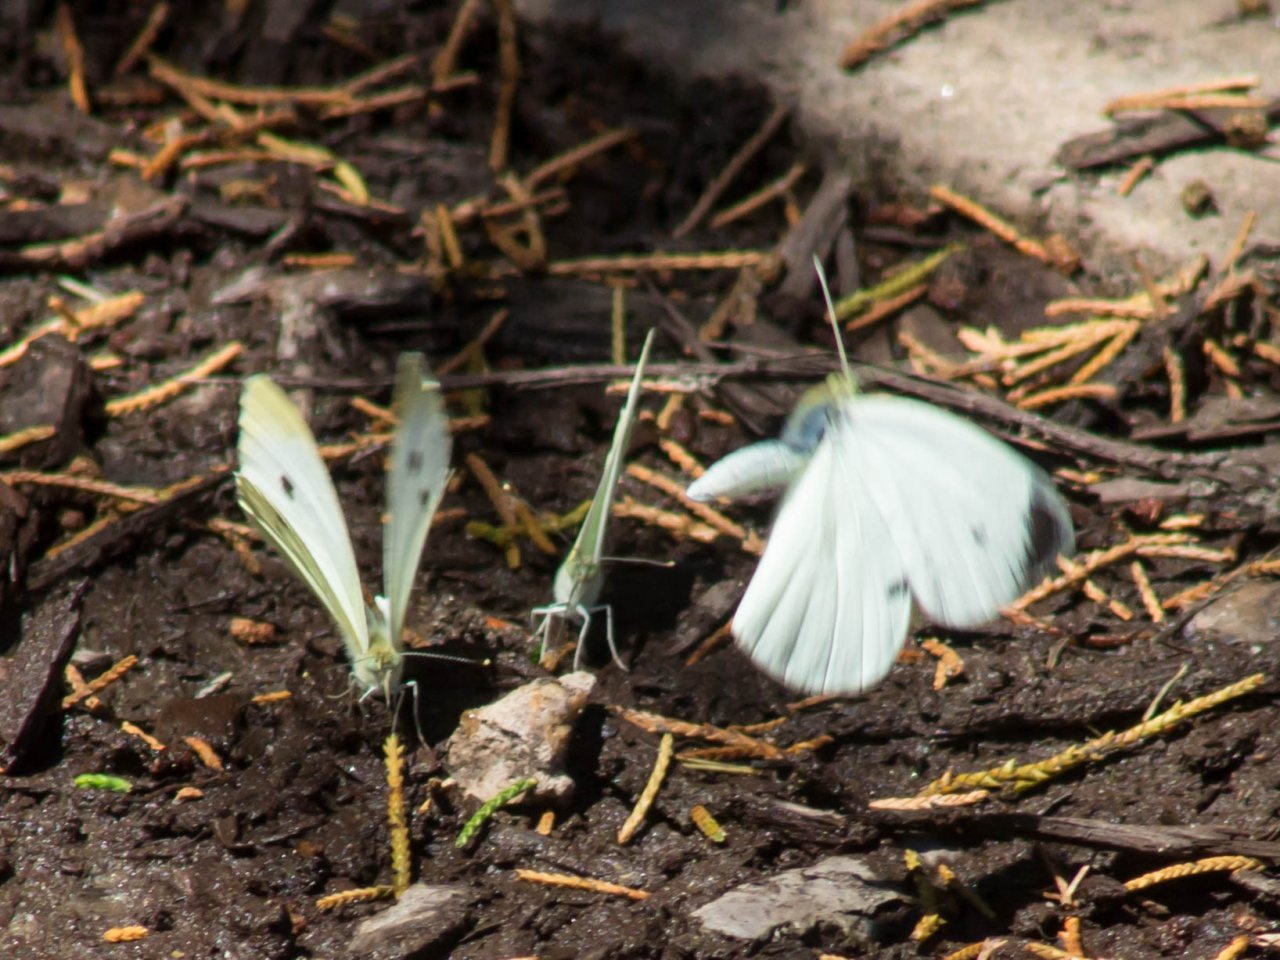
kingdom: Animalia
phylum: Arthropoda
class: Insecta
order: Lepidoptera
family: Pieridae
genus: Pieris
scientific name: Pieris rapae
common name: Cabbage White
